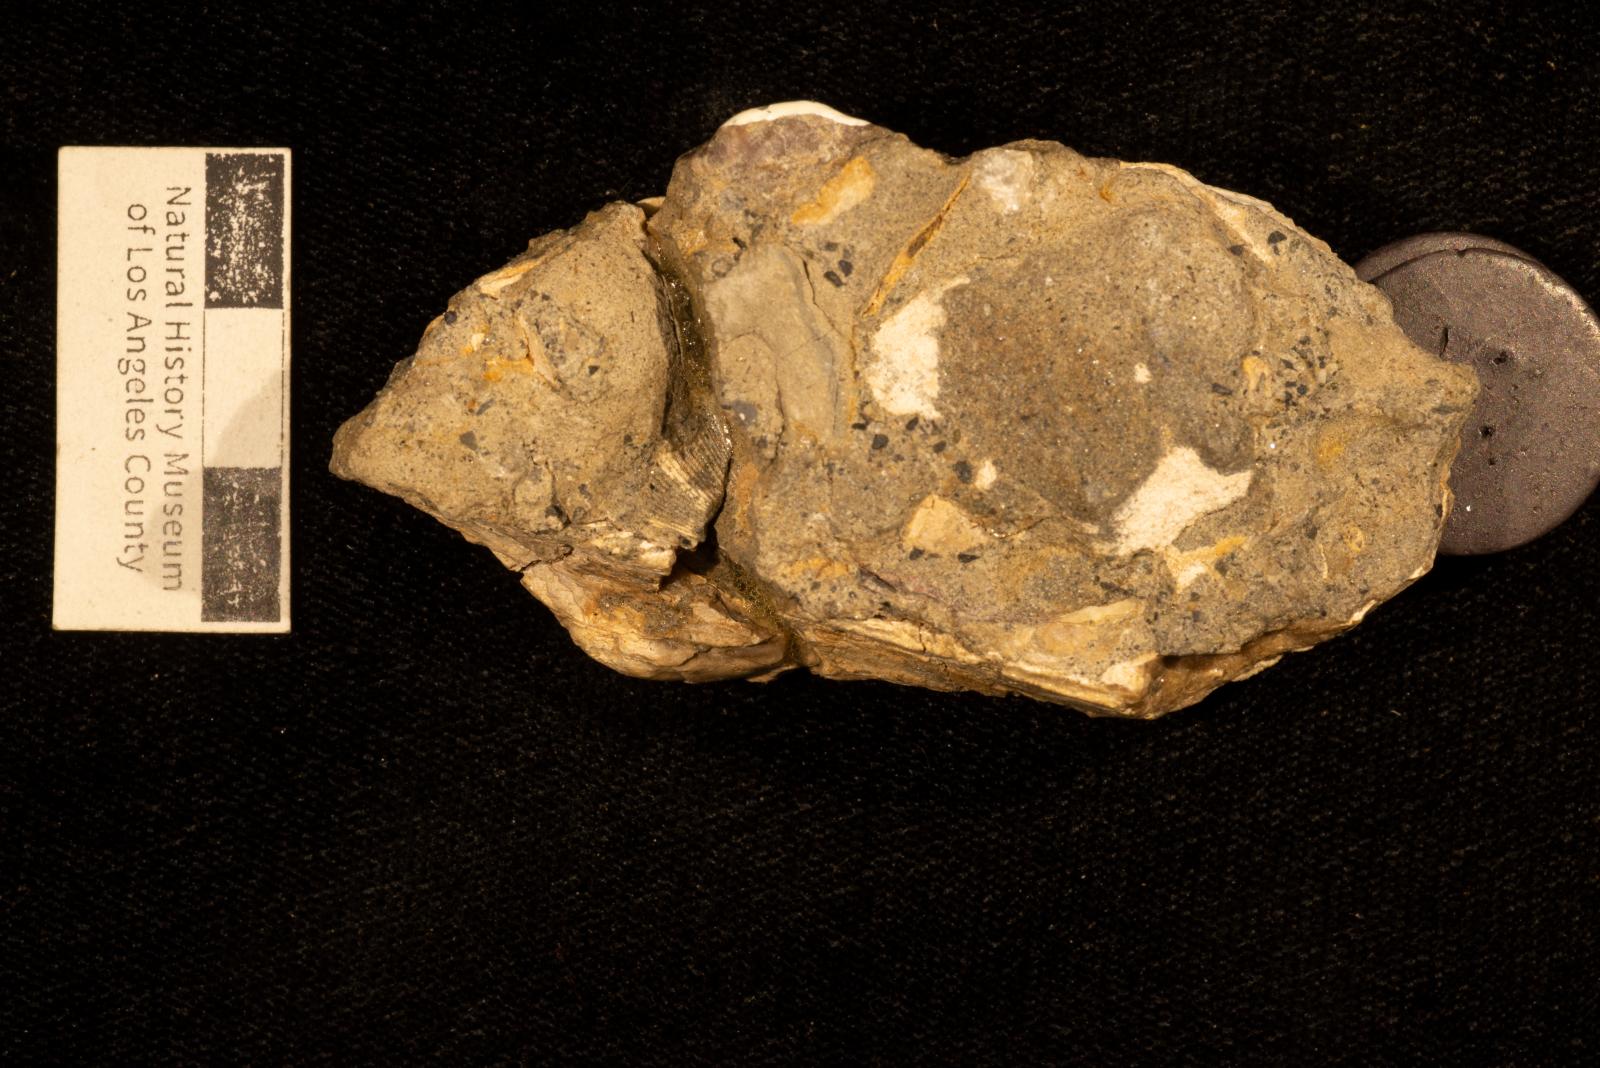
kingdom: Animalia
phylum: Mollusca
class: Bivalvia
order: Arcida
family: Arcidae
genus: Indogrammatodon
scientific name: Indogrammatodon
